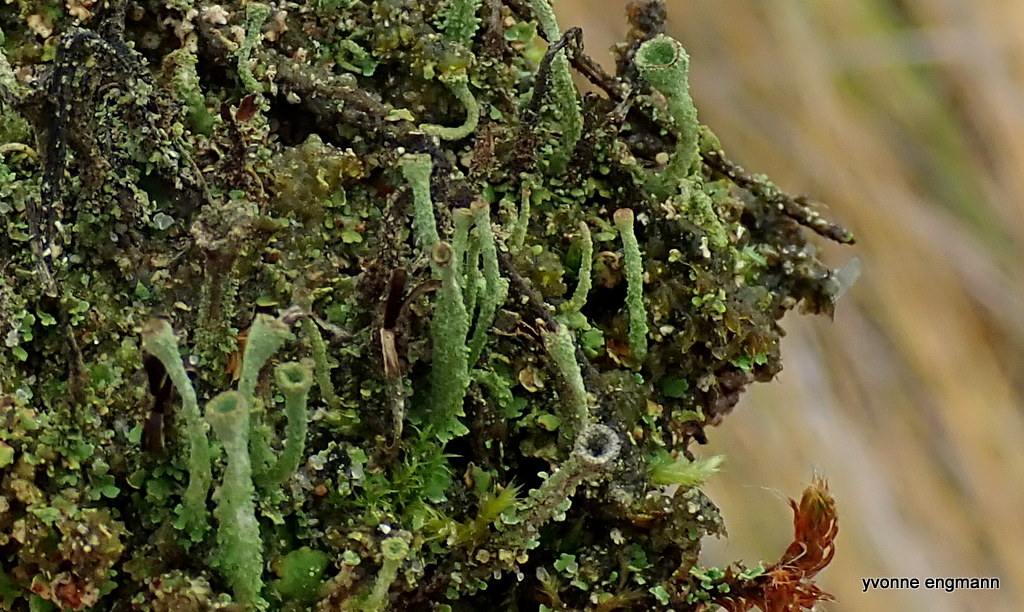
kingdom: Fungi
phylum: Ascomycota
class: Lecanoromycetes
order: Lecanorales
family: Cladoniaceae
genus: Cladonia
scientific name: Cladonia ochrochlora
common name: stød-bægerlav
